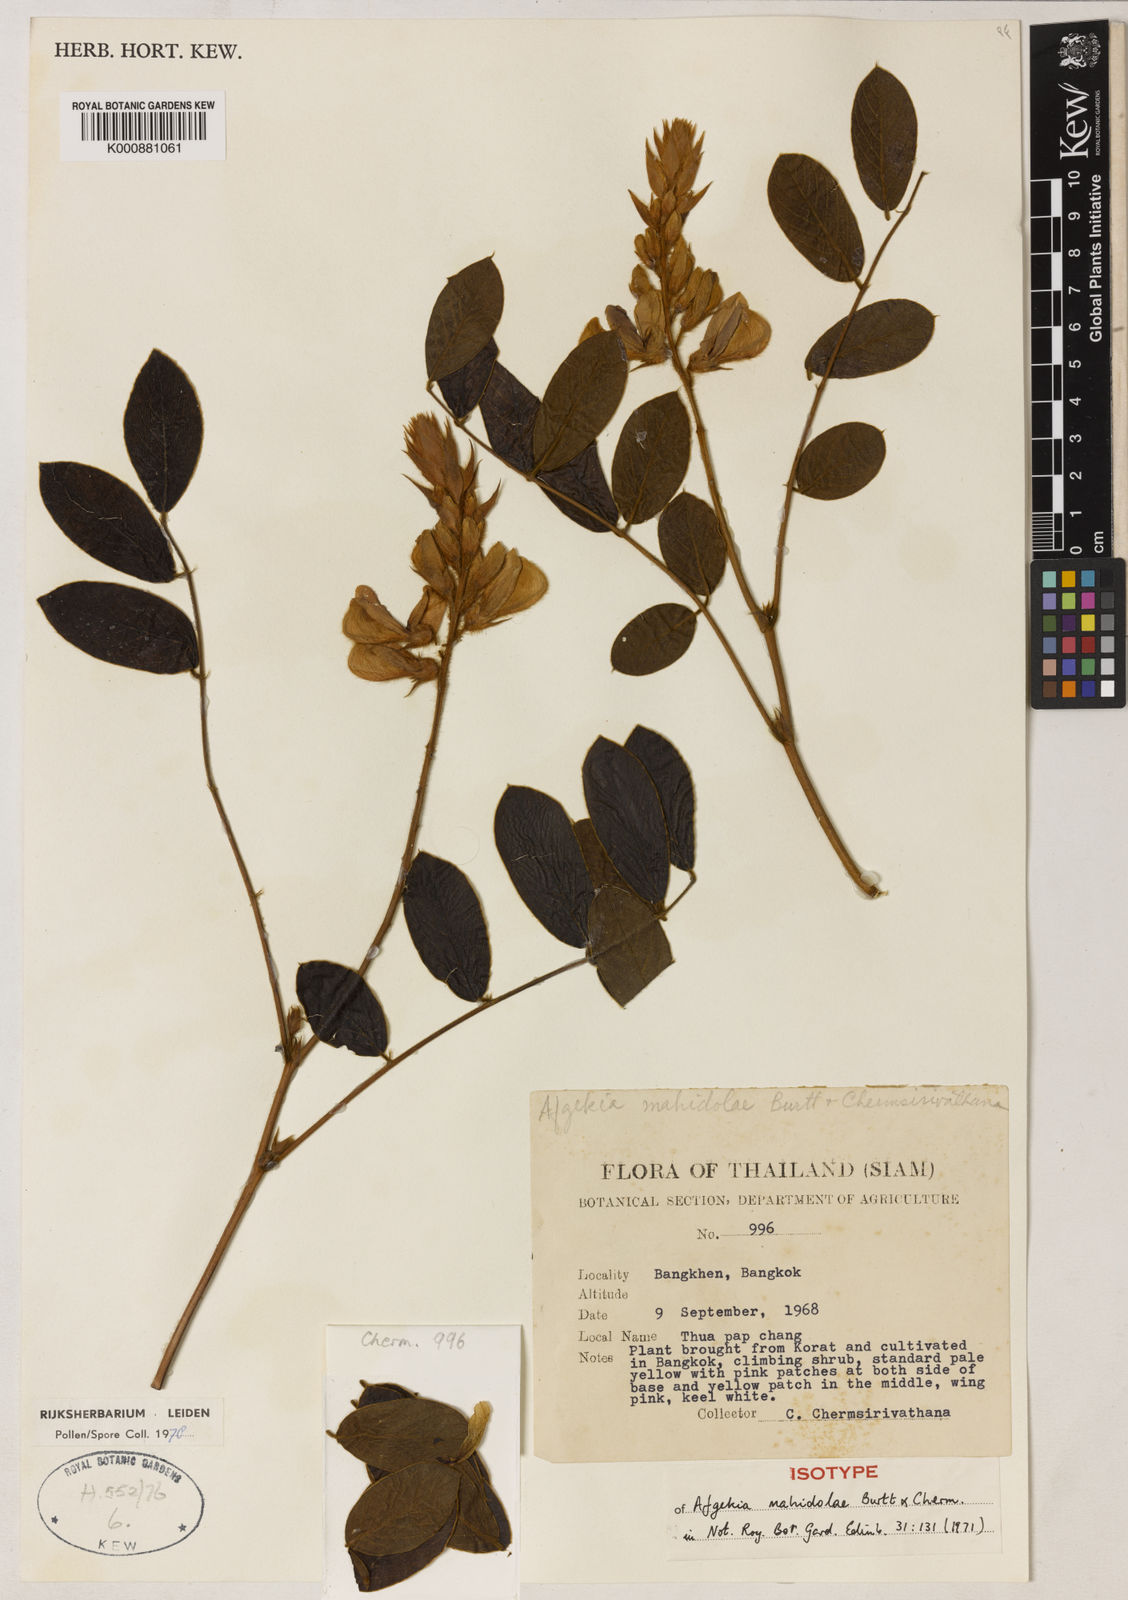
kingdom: Plantae
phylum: Tracheophyta
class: Magnoliopsida
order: Fabales
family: Fabaceae
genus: Afgekia
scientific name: Afgekia mahidoliae
